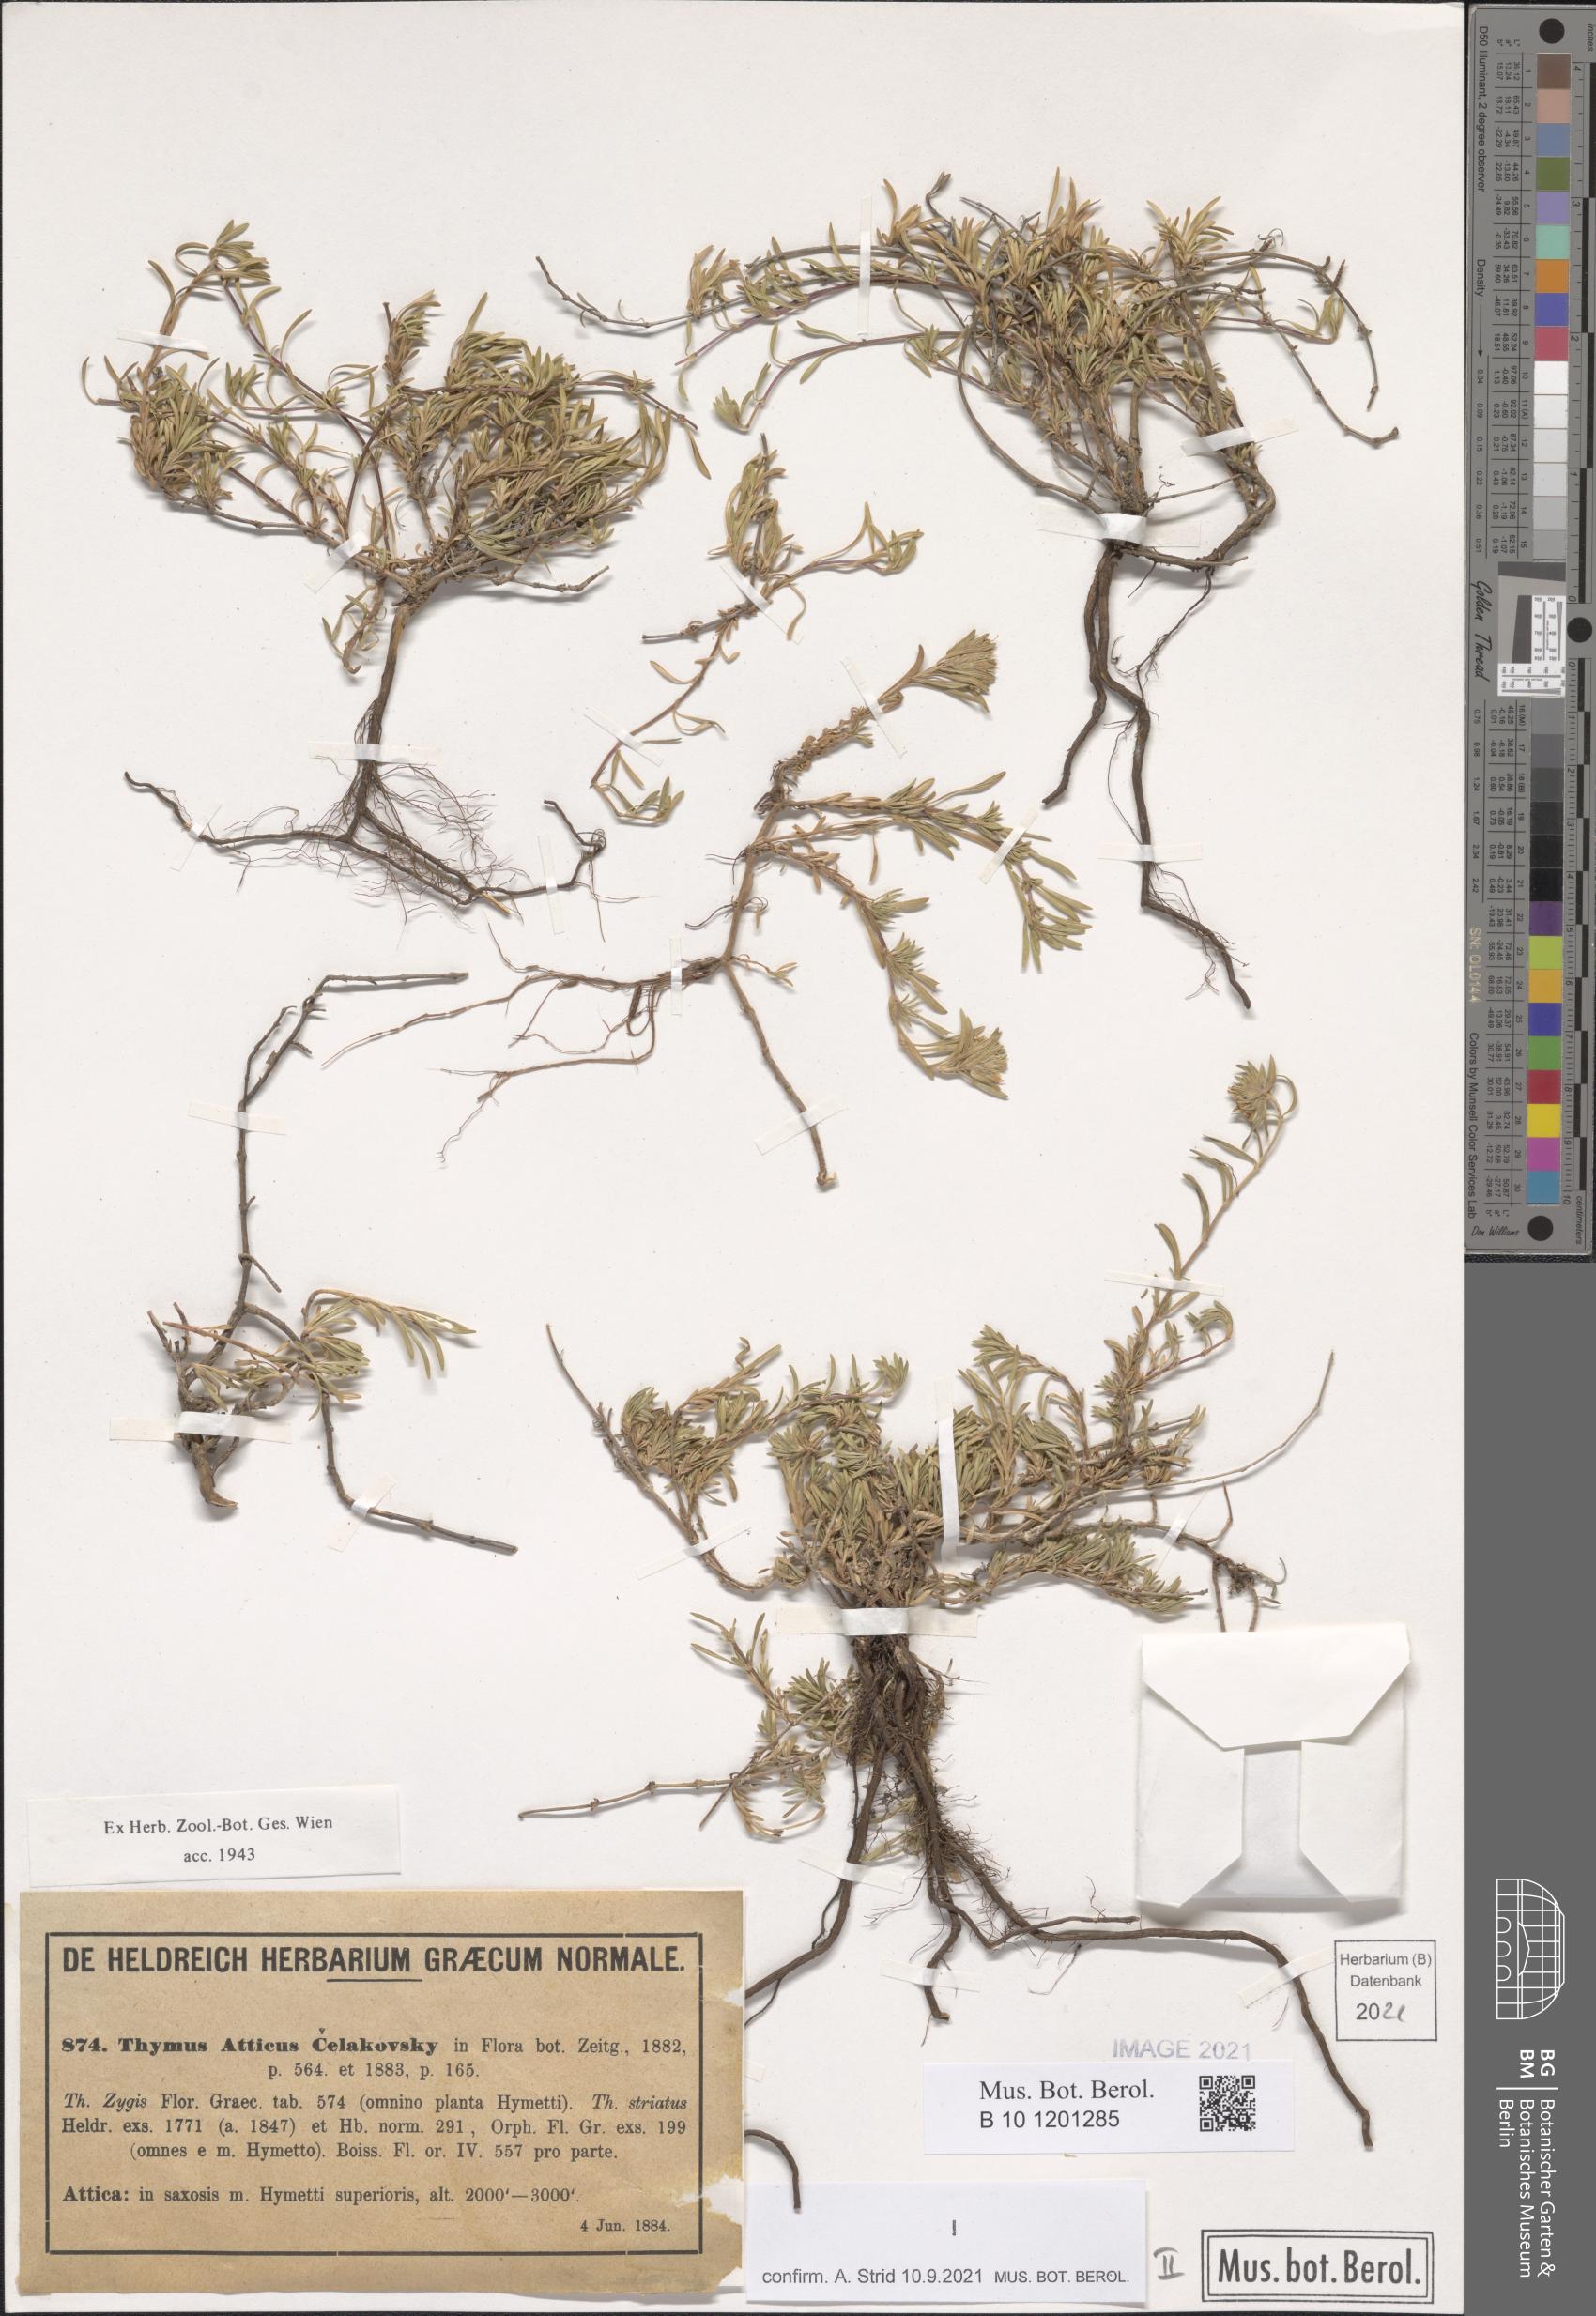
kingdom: Plantae
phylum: Tracheophyta
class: Magnoliopsida
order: Lamiales
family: Lamiaceae
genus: Thymus
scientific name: Thymus atticus
